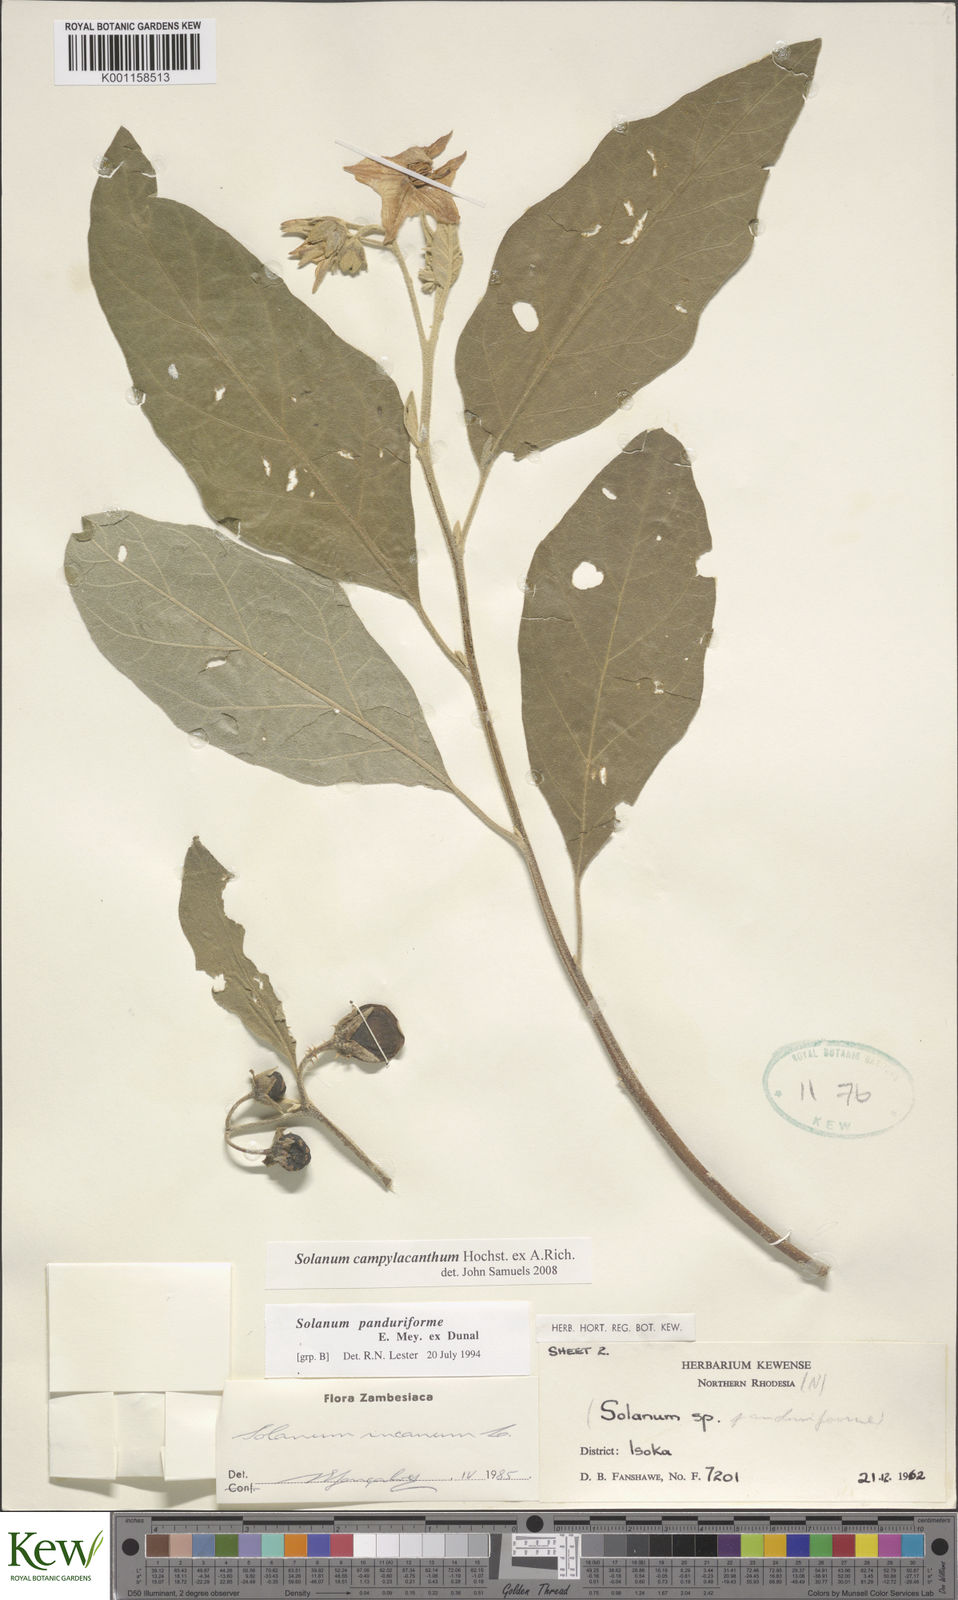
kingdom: Plantae
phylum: Tracheophyta
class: Magnoliopsida
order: Solanales
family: Solanaceae
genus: Solanum
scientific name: Solanum campylacanthum
